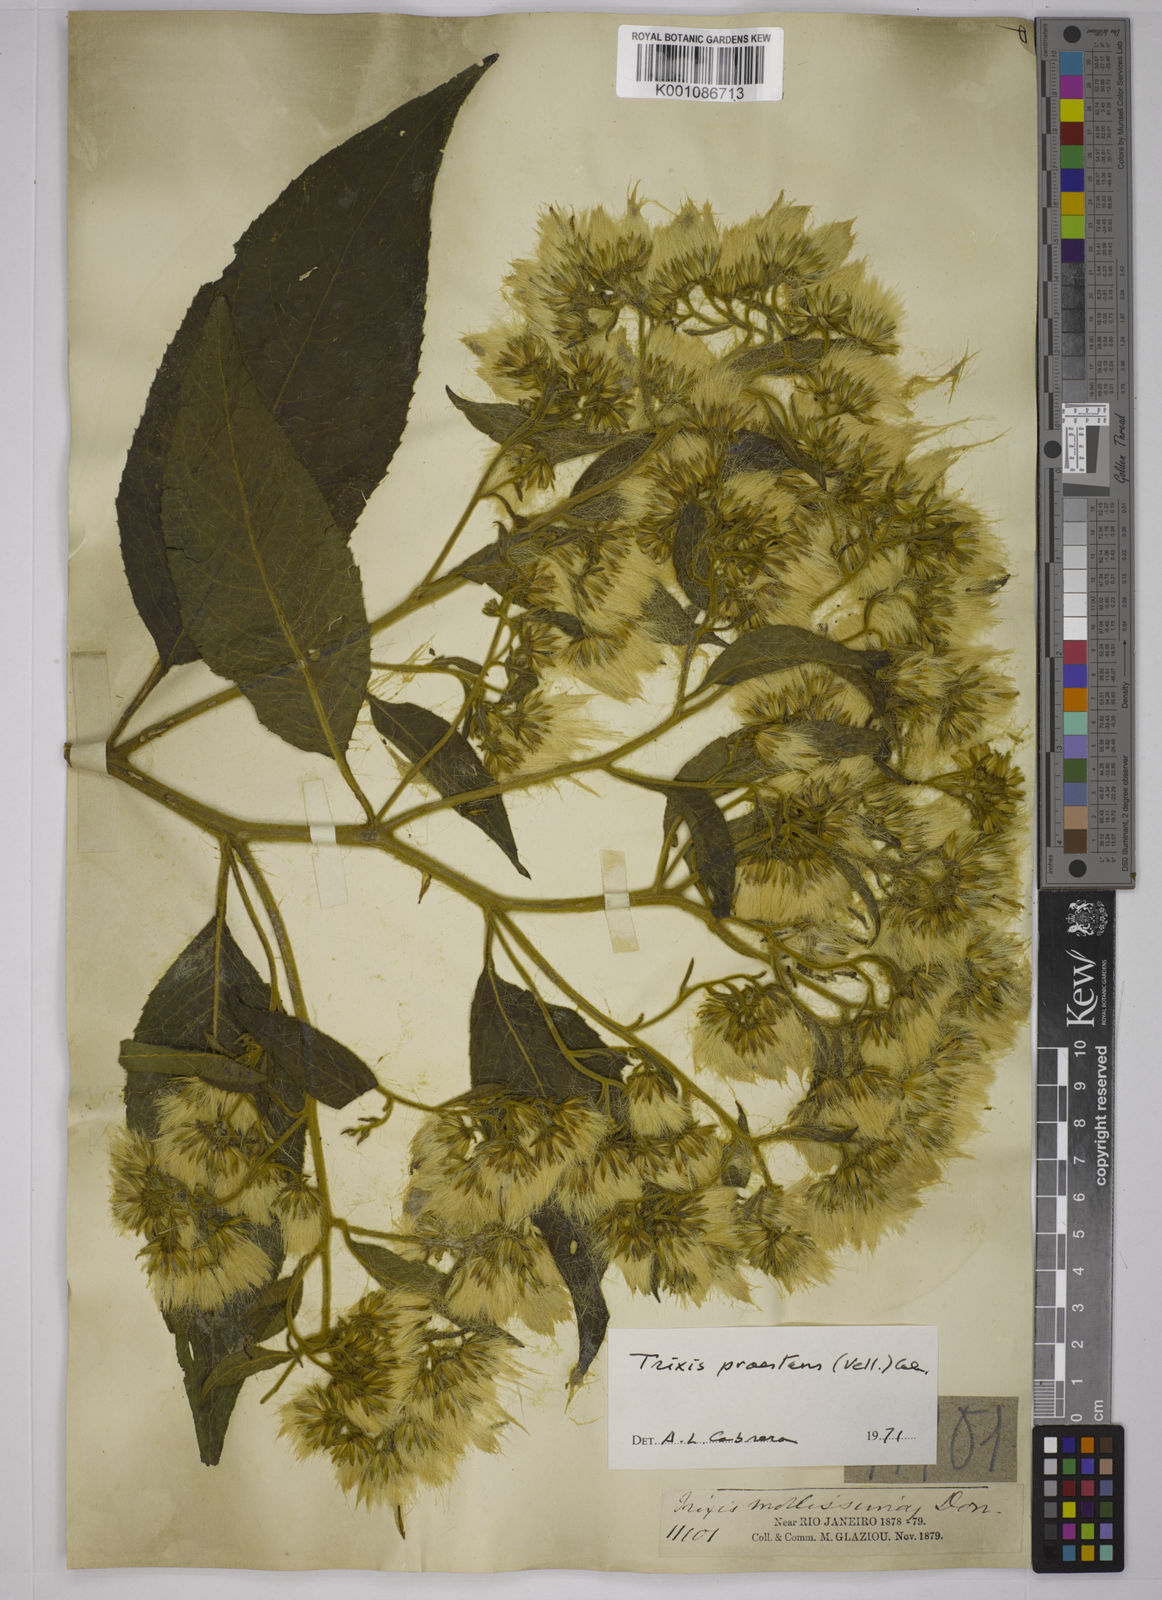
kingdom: Plantae
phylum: Tracheophyta
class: Magnoliopsida
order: Asterales
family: Asteraceae
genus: Trixis
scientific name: Trixis praestans
